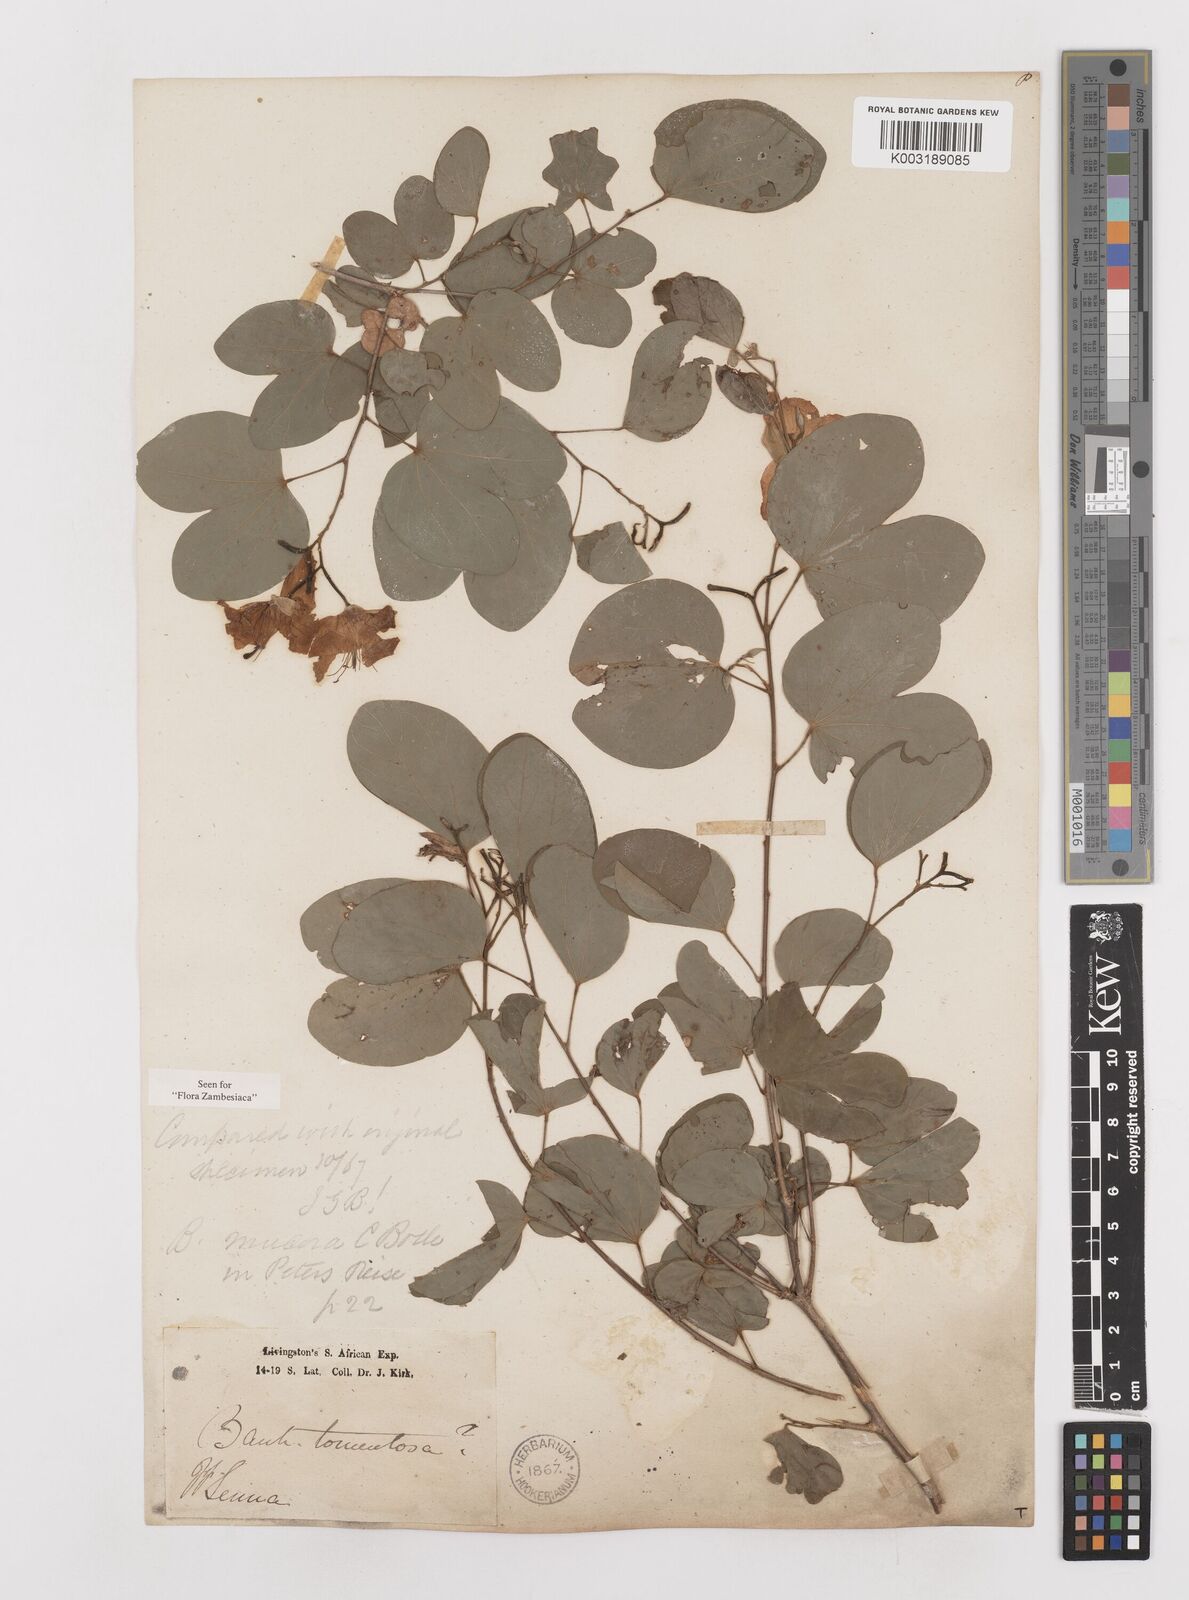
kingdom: Plantae
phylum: Tracheophyta
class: Magnoliopsida
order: Fabales
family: Fabaceae
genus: Bauhinia
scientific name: Bauhinia tomentosa
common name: Bell bauhinia
